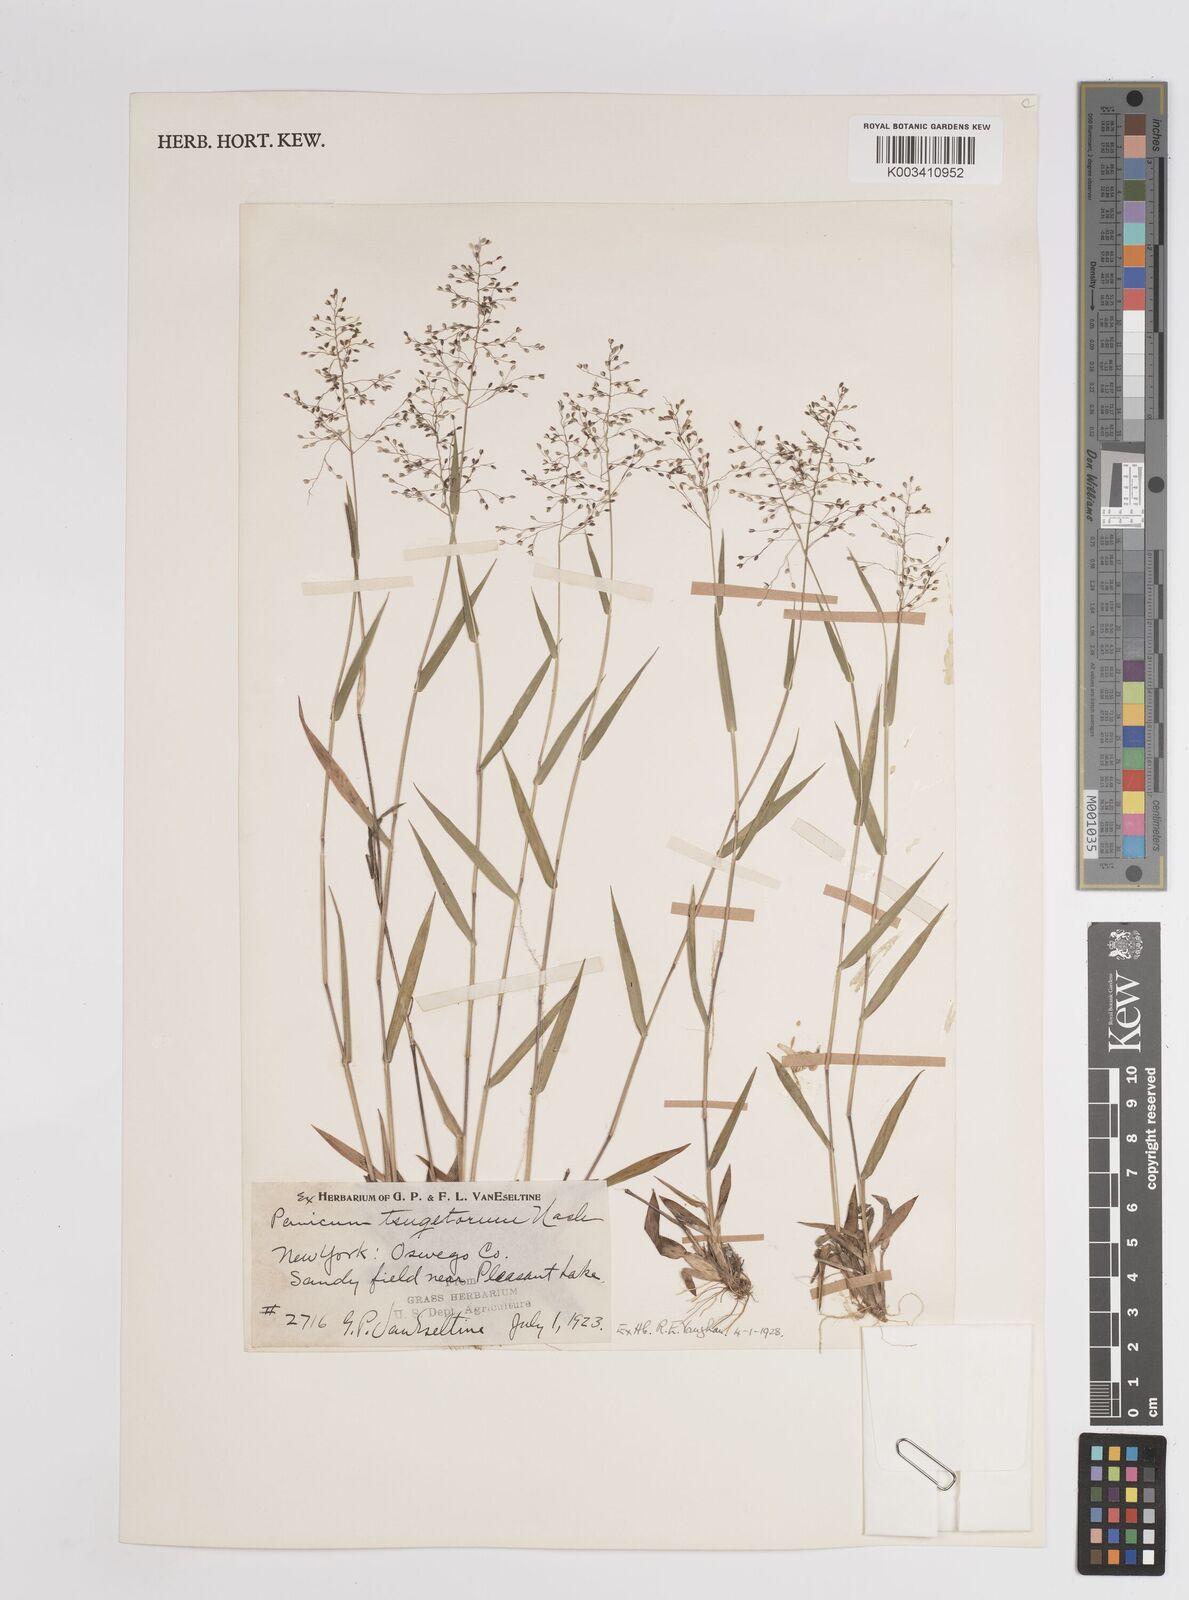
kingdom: Plantae
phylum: Tracheophyta
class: Liliopsida
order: Poales
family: Poaceae
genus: Dichanthelium
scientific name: Dichanthelium columbianum
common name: Hemlock panic grass
